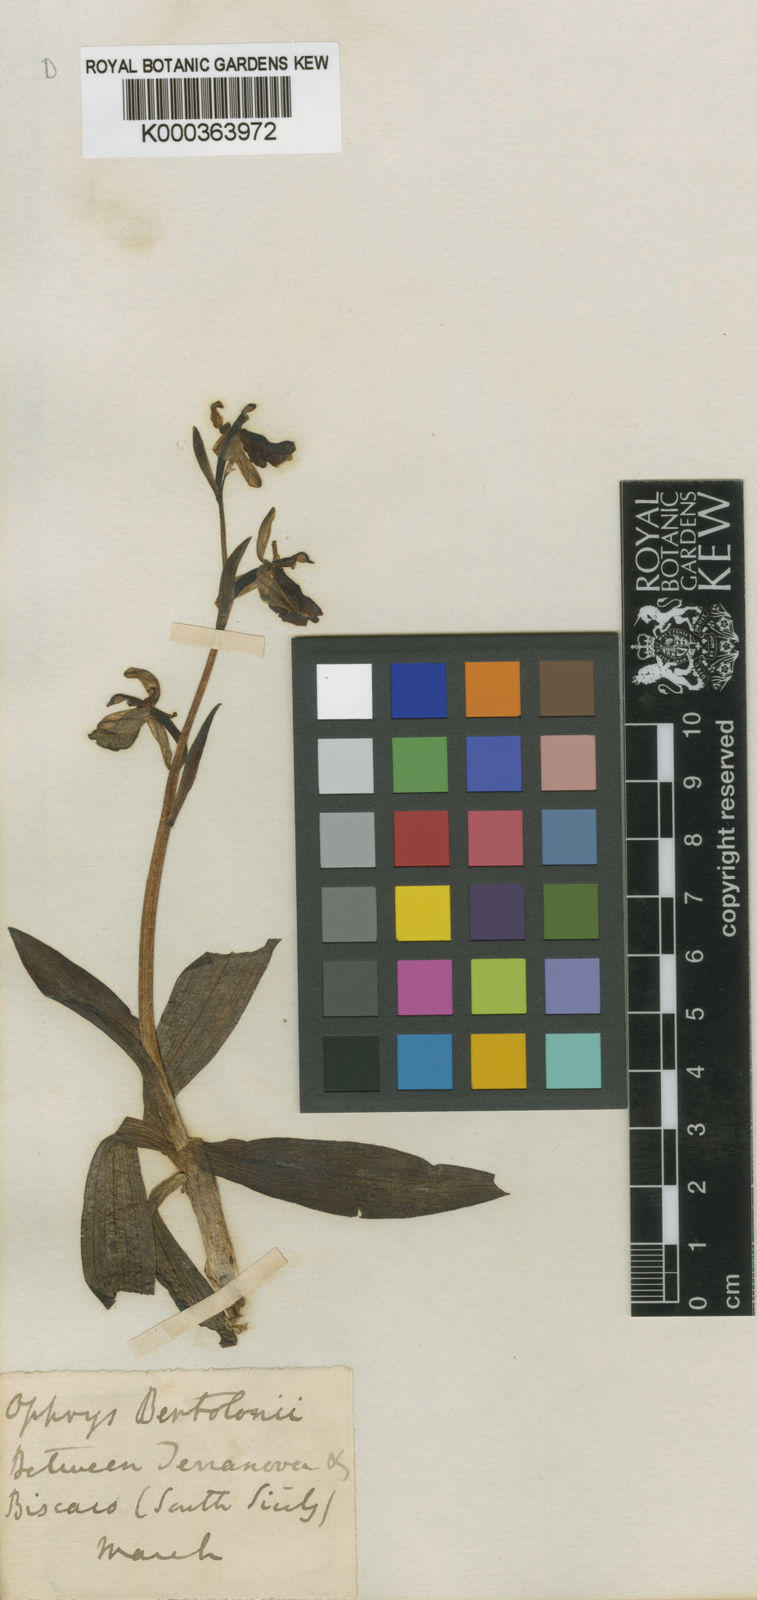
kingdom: Plantae
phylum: Tracheophyta
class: Liliopsida
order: Asparagales
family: Orchidaceae
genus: Ophrys
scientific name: Ophrys bertolonii
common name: Bertoloni's bee orchid
